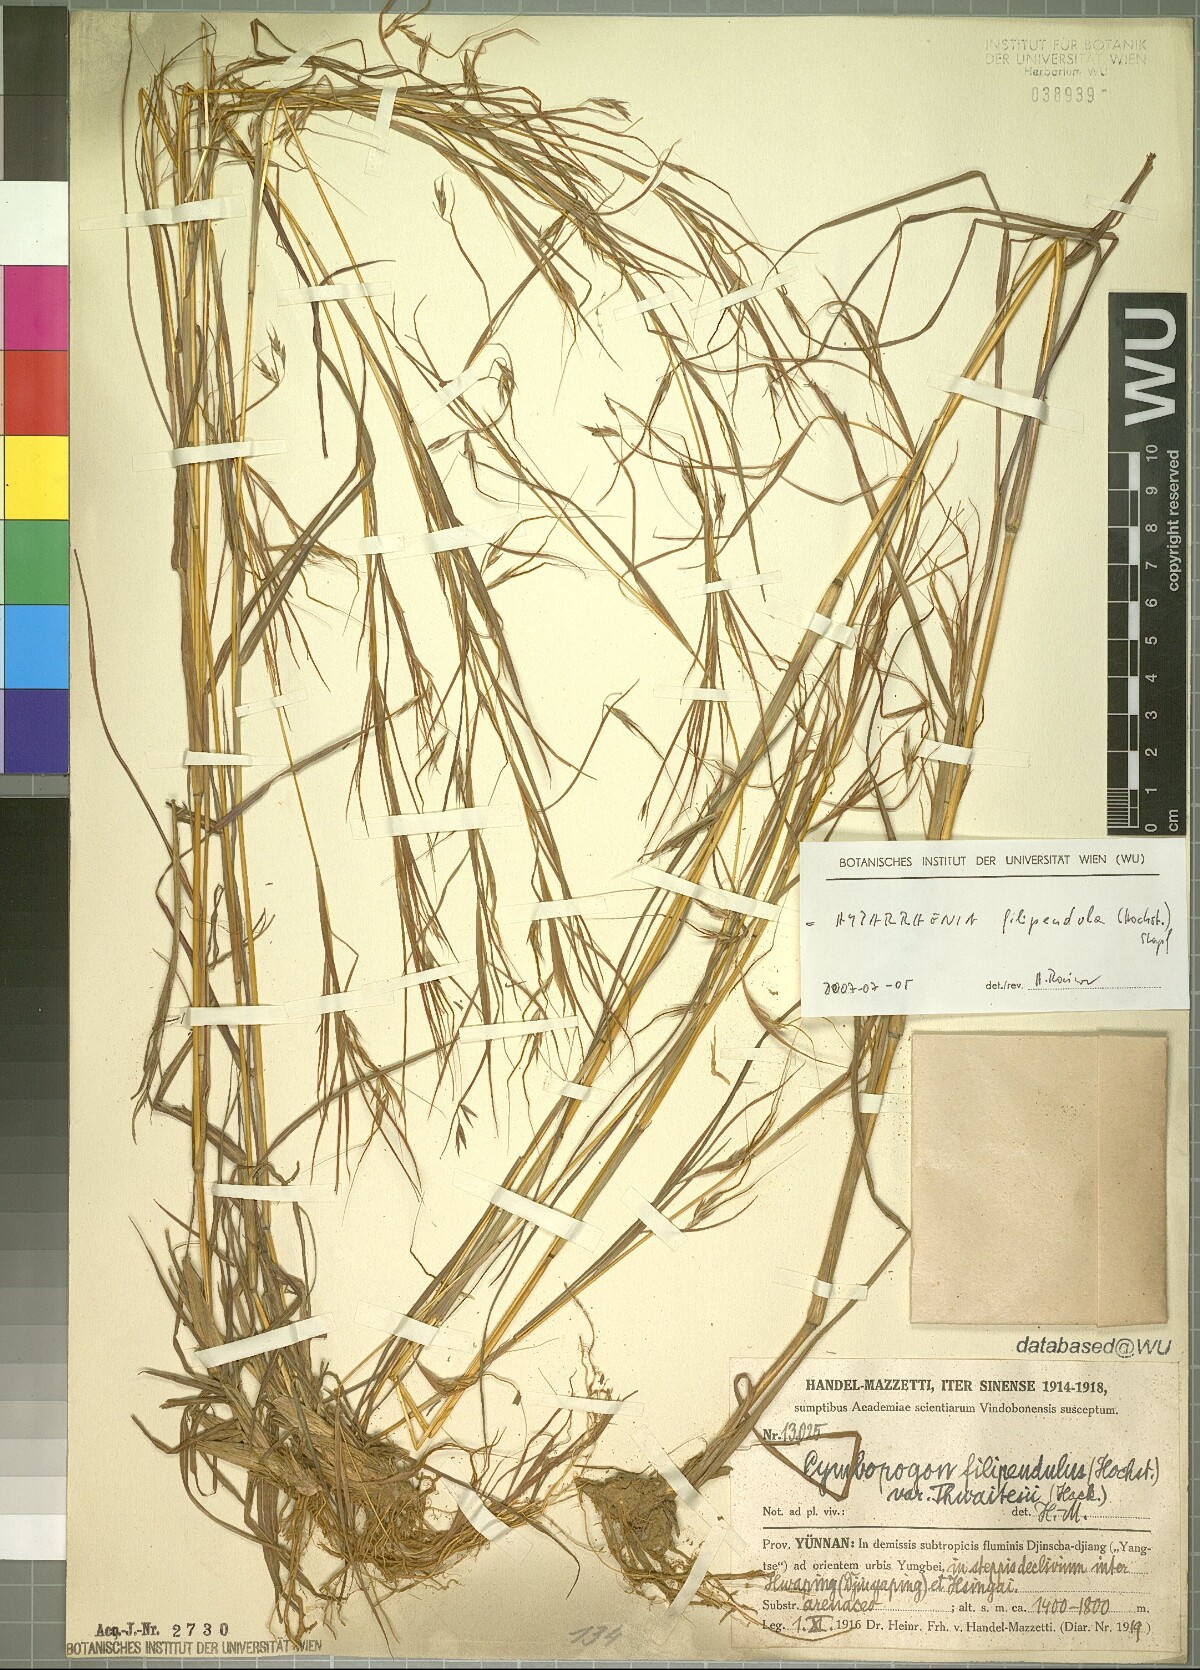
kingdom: Plantae
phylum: Tracheophyta
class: Liliopsida
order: Poales
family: Poaceae
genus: Hyparrhenia
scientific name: Hyparrhenia filipendula
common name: Tambookie grass
